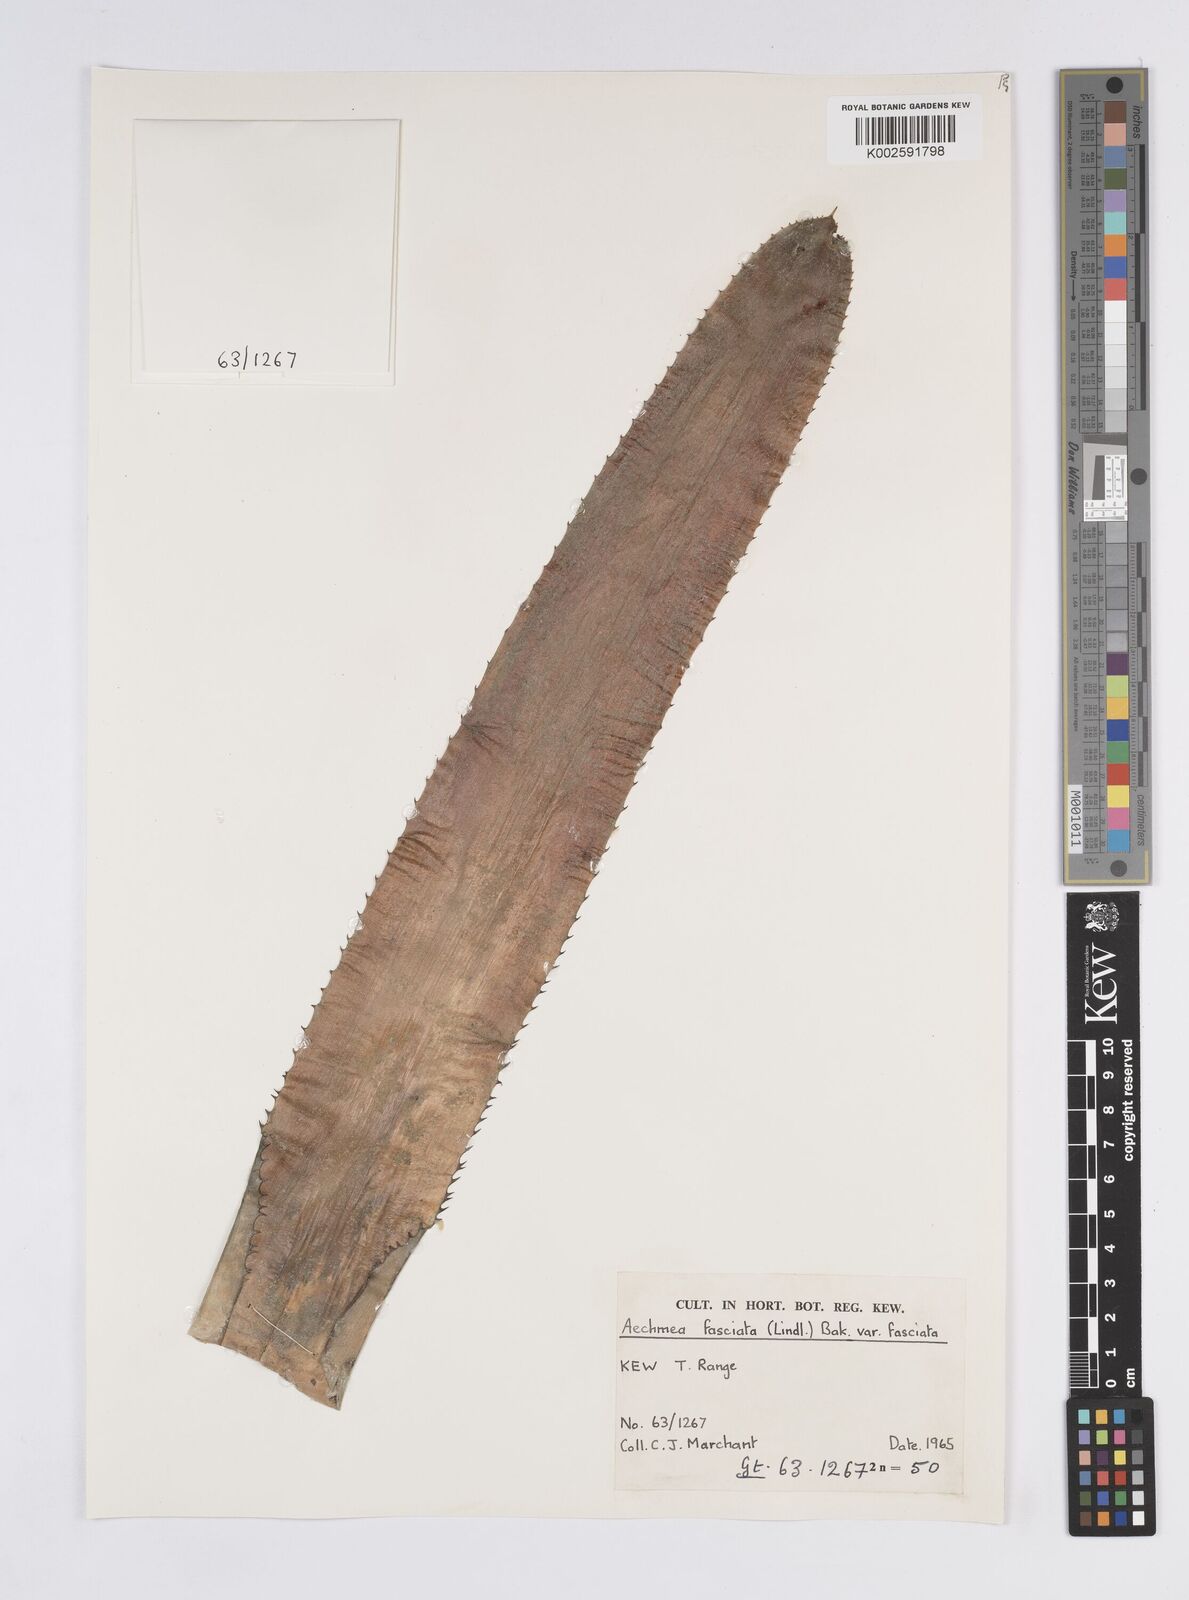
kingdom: Plantae
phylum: Tracheophyta
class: Liliopsida
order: Poales
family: Bromeliaceae
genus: Aechmea
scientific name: Aechmea fasciata
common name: Urnplant
